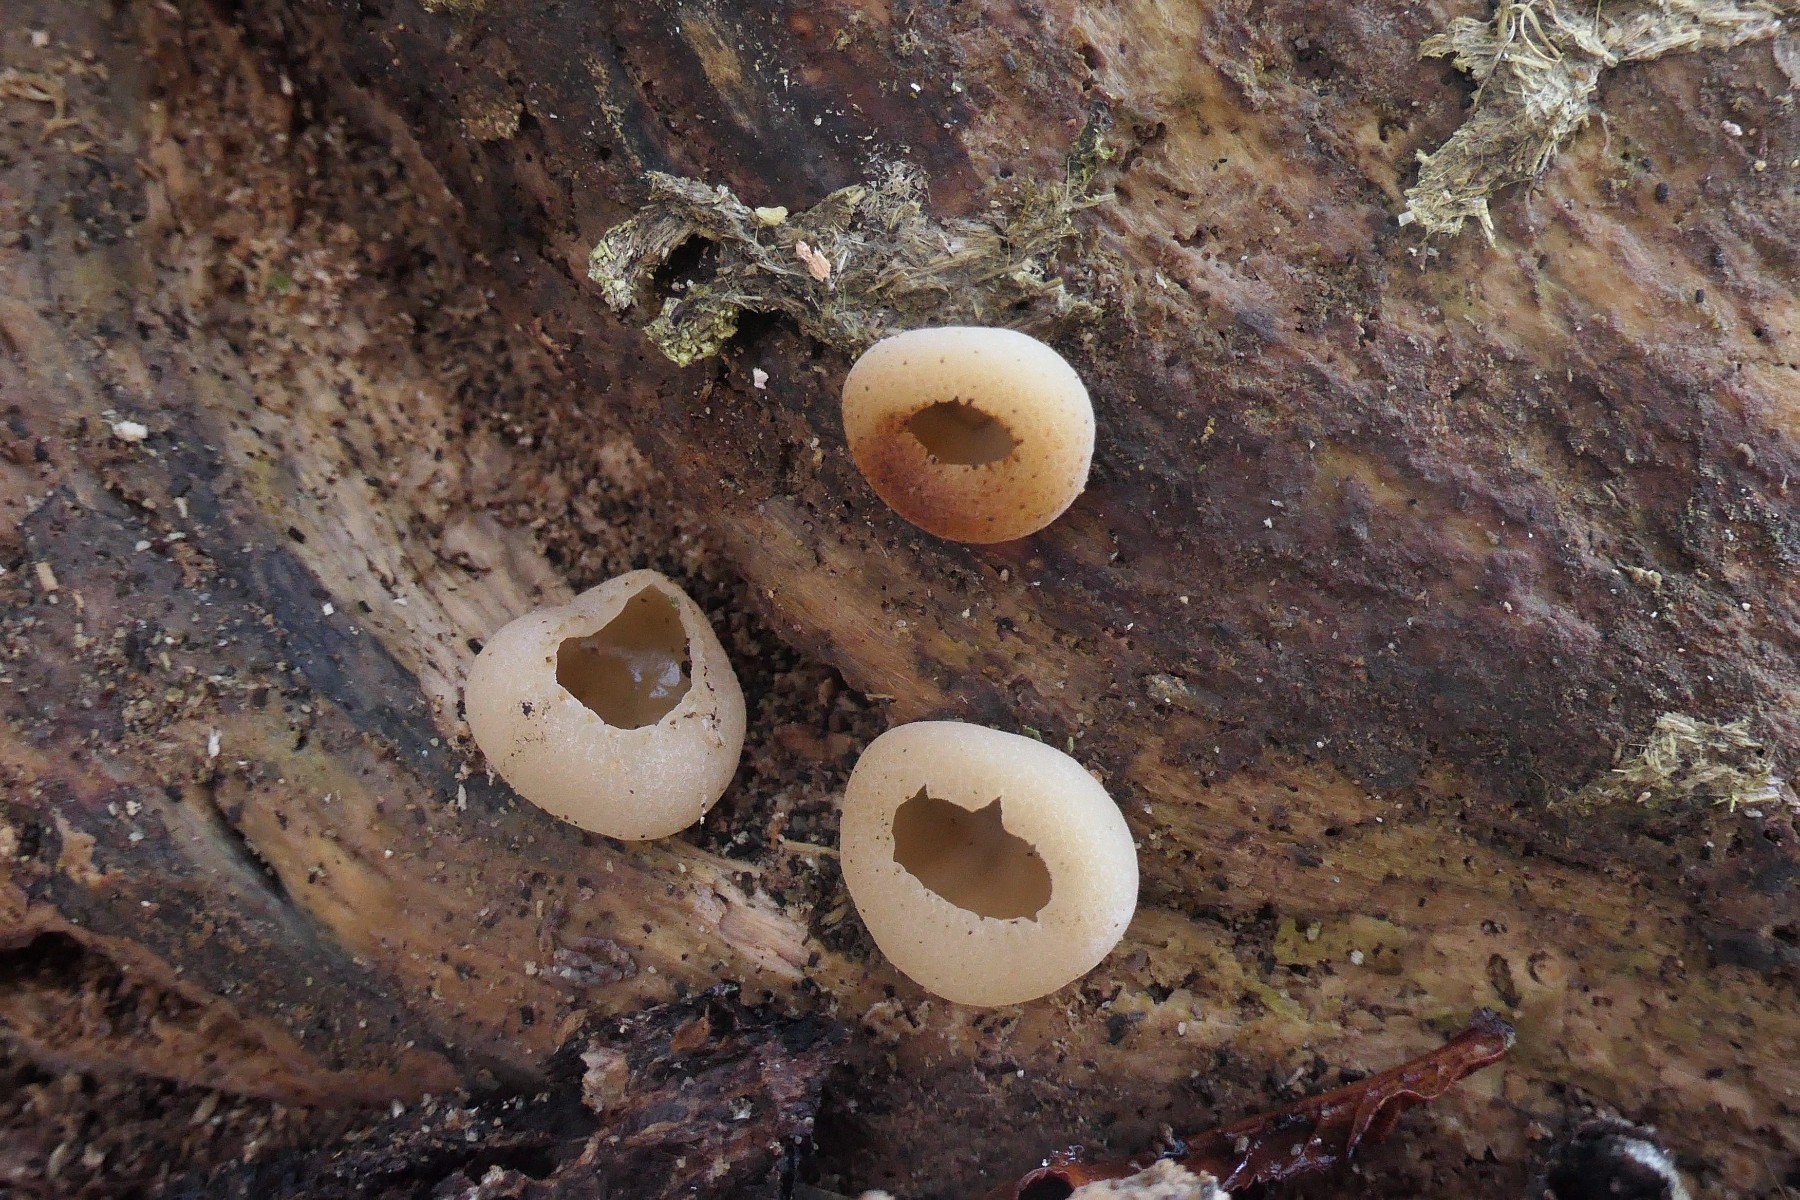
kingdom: Fungi
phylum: Ascomycota
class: Pezizomycetes
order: Pezizales
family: Pezizaceae
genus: Peziza
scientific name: Peziza varia
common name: Ved-bægersvamp
